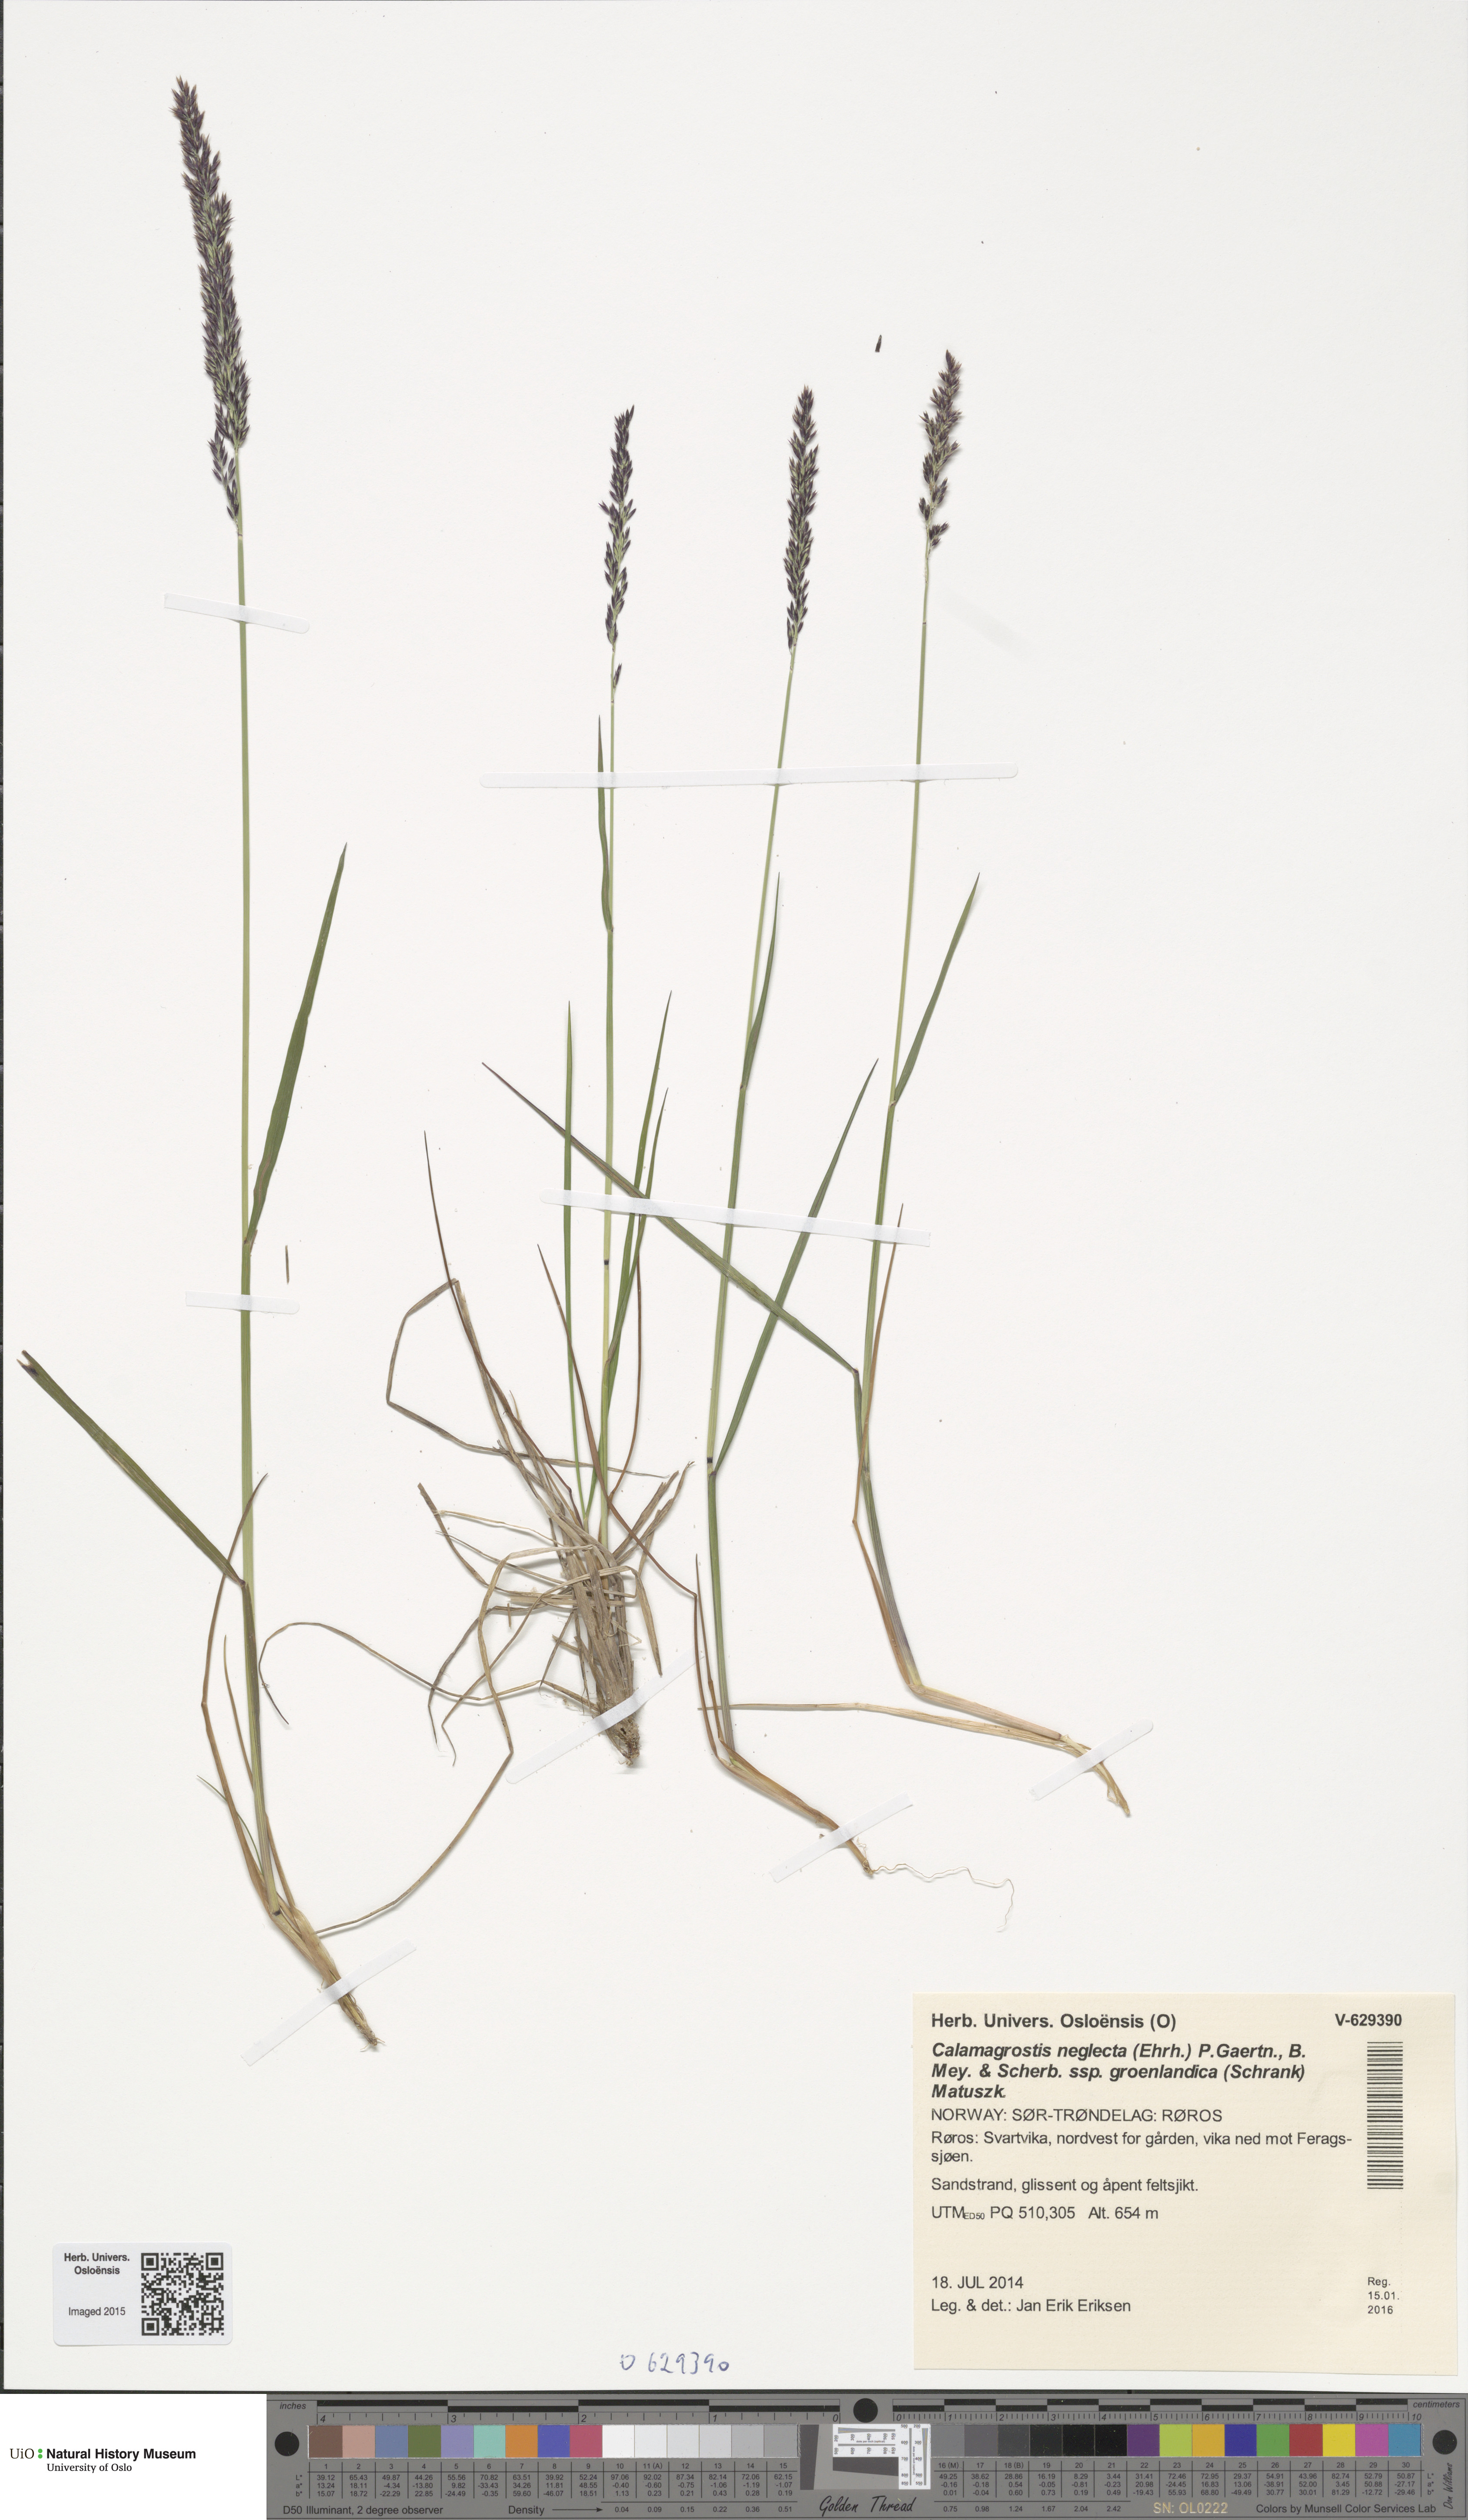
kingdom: Plantae
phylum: Tracheophyta
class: Liliopsida
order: Poales
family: Poaceae
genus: Calamagrostis
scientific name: Calamagrostis stricta
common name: Narrow small-reed
